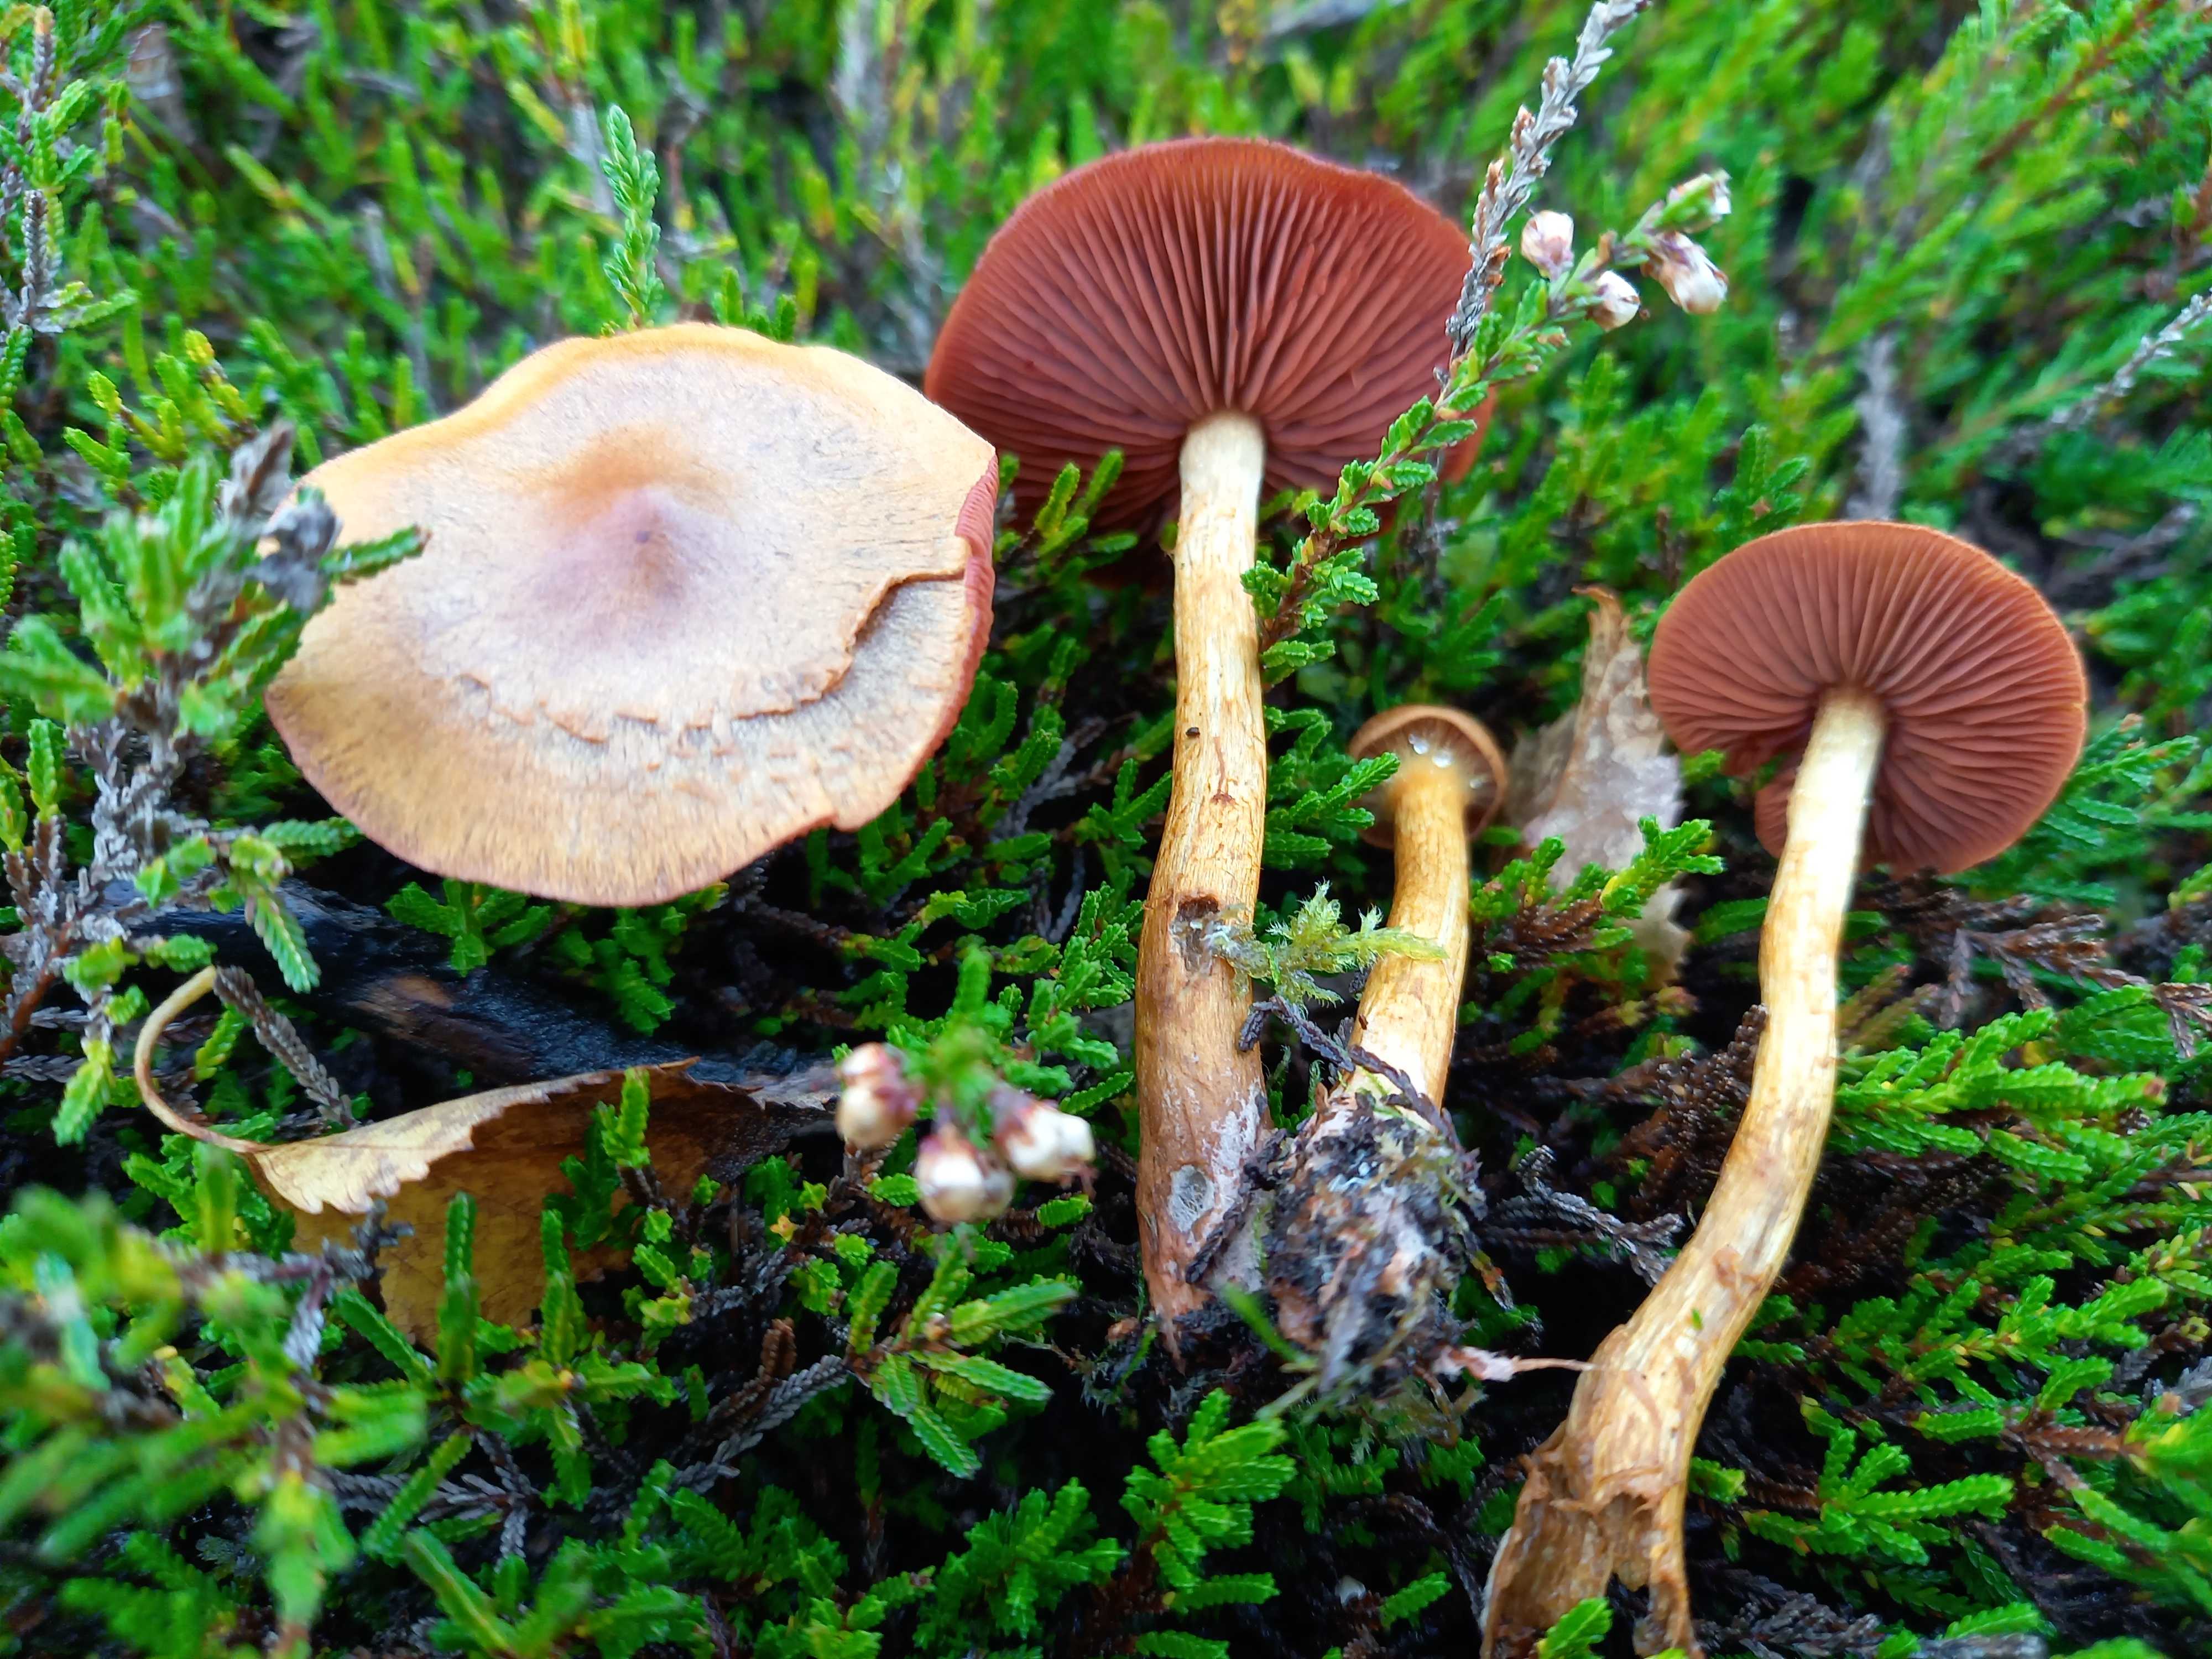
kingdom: Fungi
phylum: Basidiomycota
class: Agaricomycetes
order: Agaricales
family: Cortinariaceae
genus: Cortinarius
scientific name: Cortinarius
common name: cinnoberbladet slørhat
